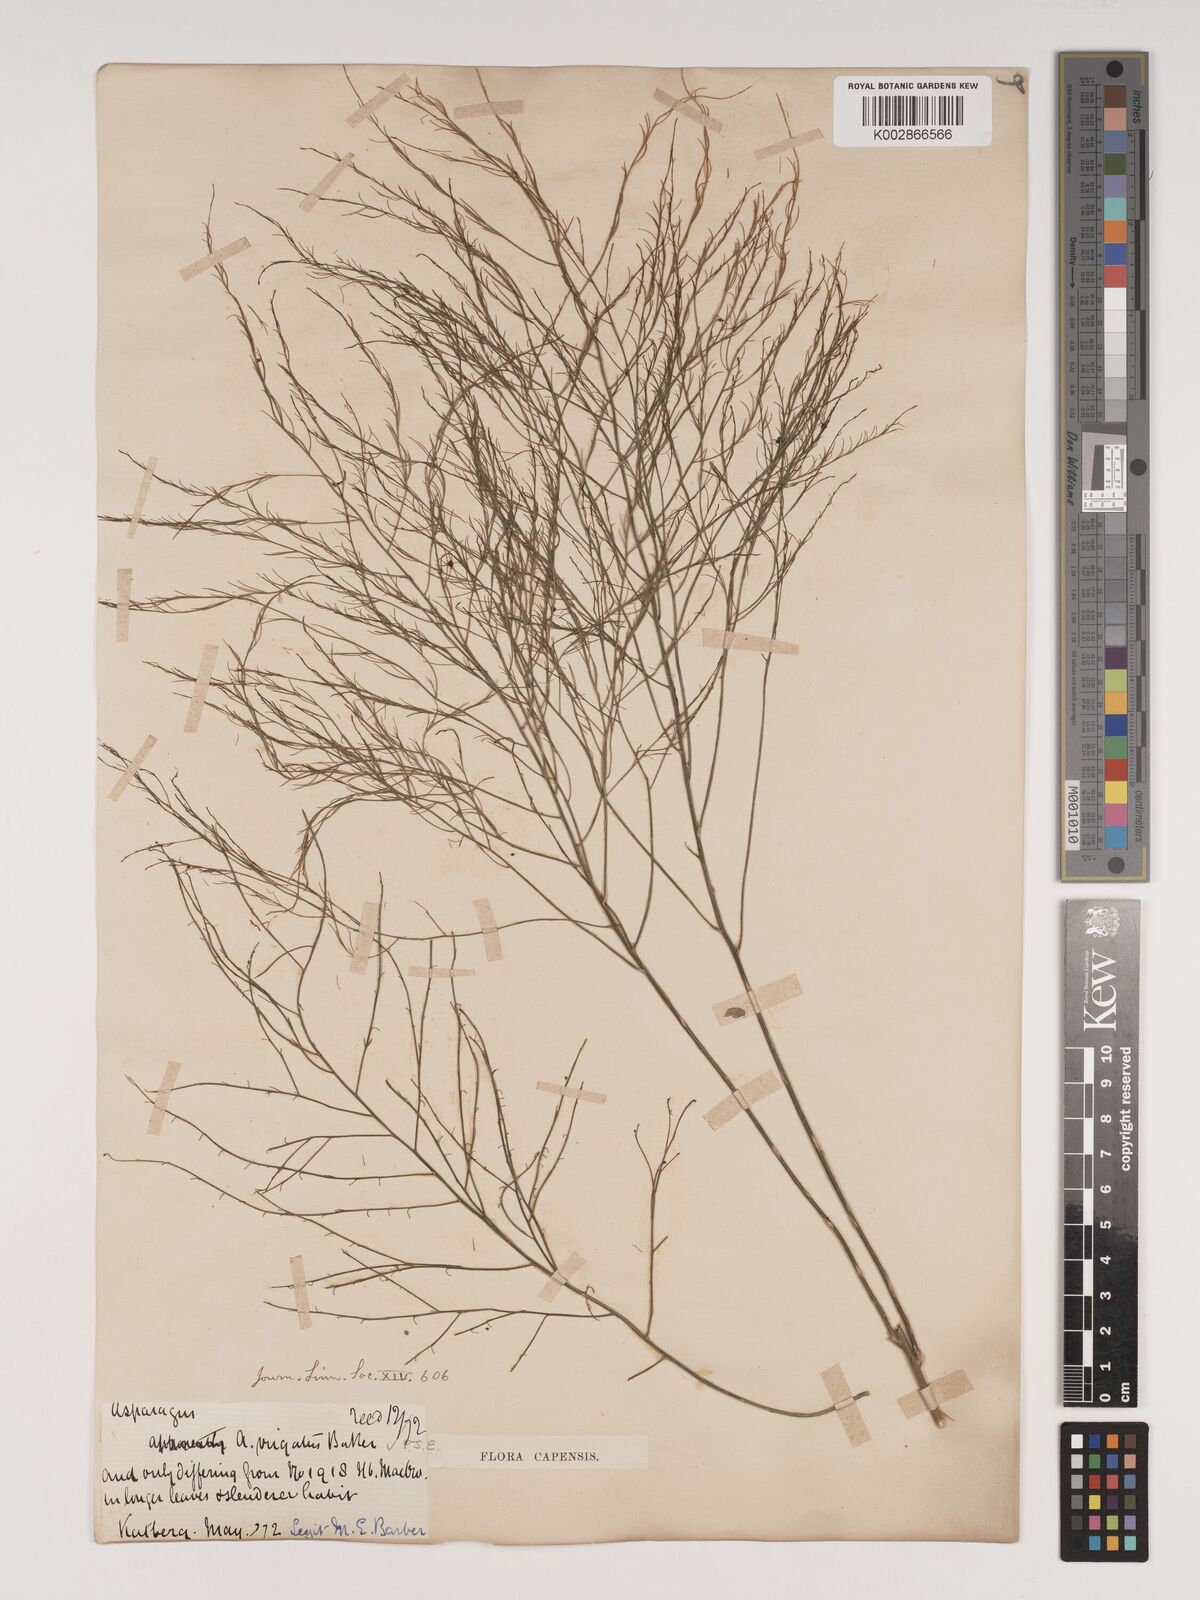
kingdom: Plantae
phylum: Tracheophyta
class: Liliopsida
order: Asparagales
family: Asparagaceae
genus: Asparagus
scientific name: Asparagus virgatus
